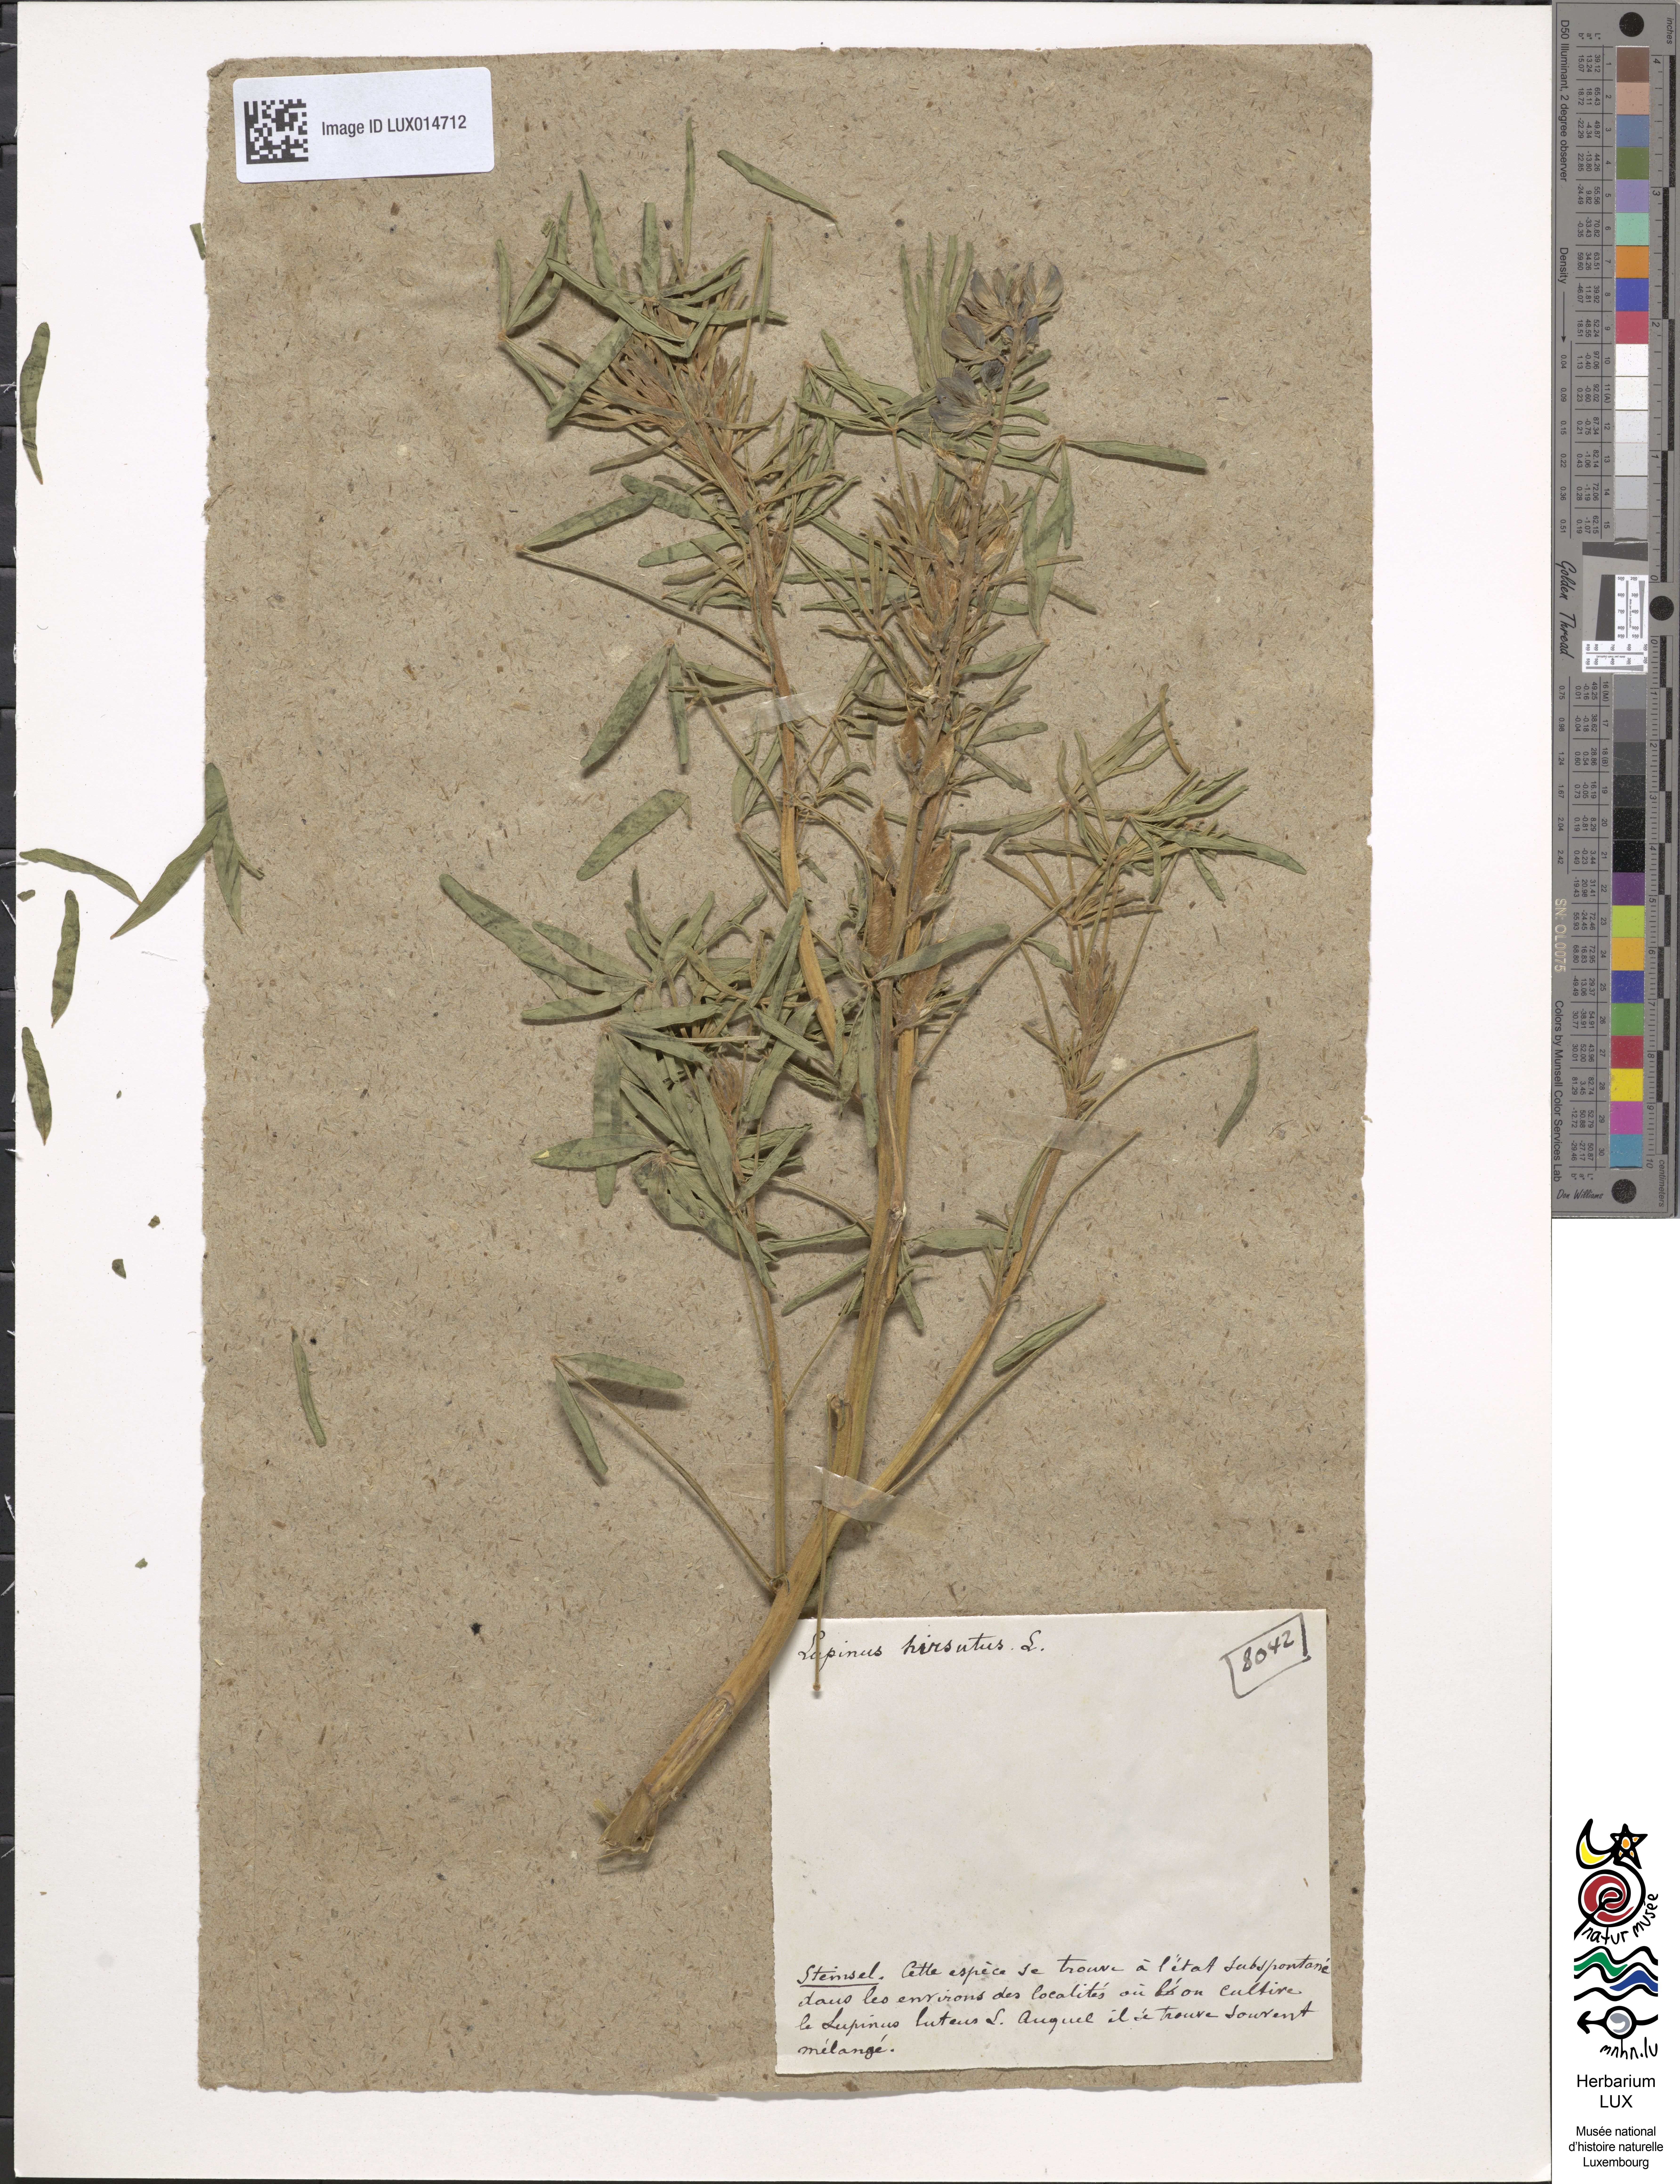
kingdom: Plantae
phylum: Tracheophyta
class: Magnoliopsida
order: Fabales
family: Fabaceae
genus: Lupinus
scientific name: Lupinus gussoneanus
